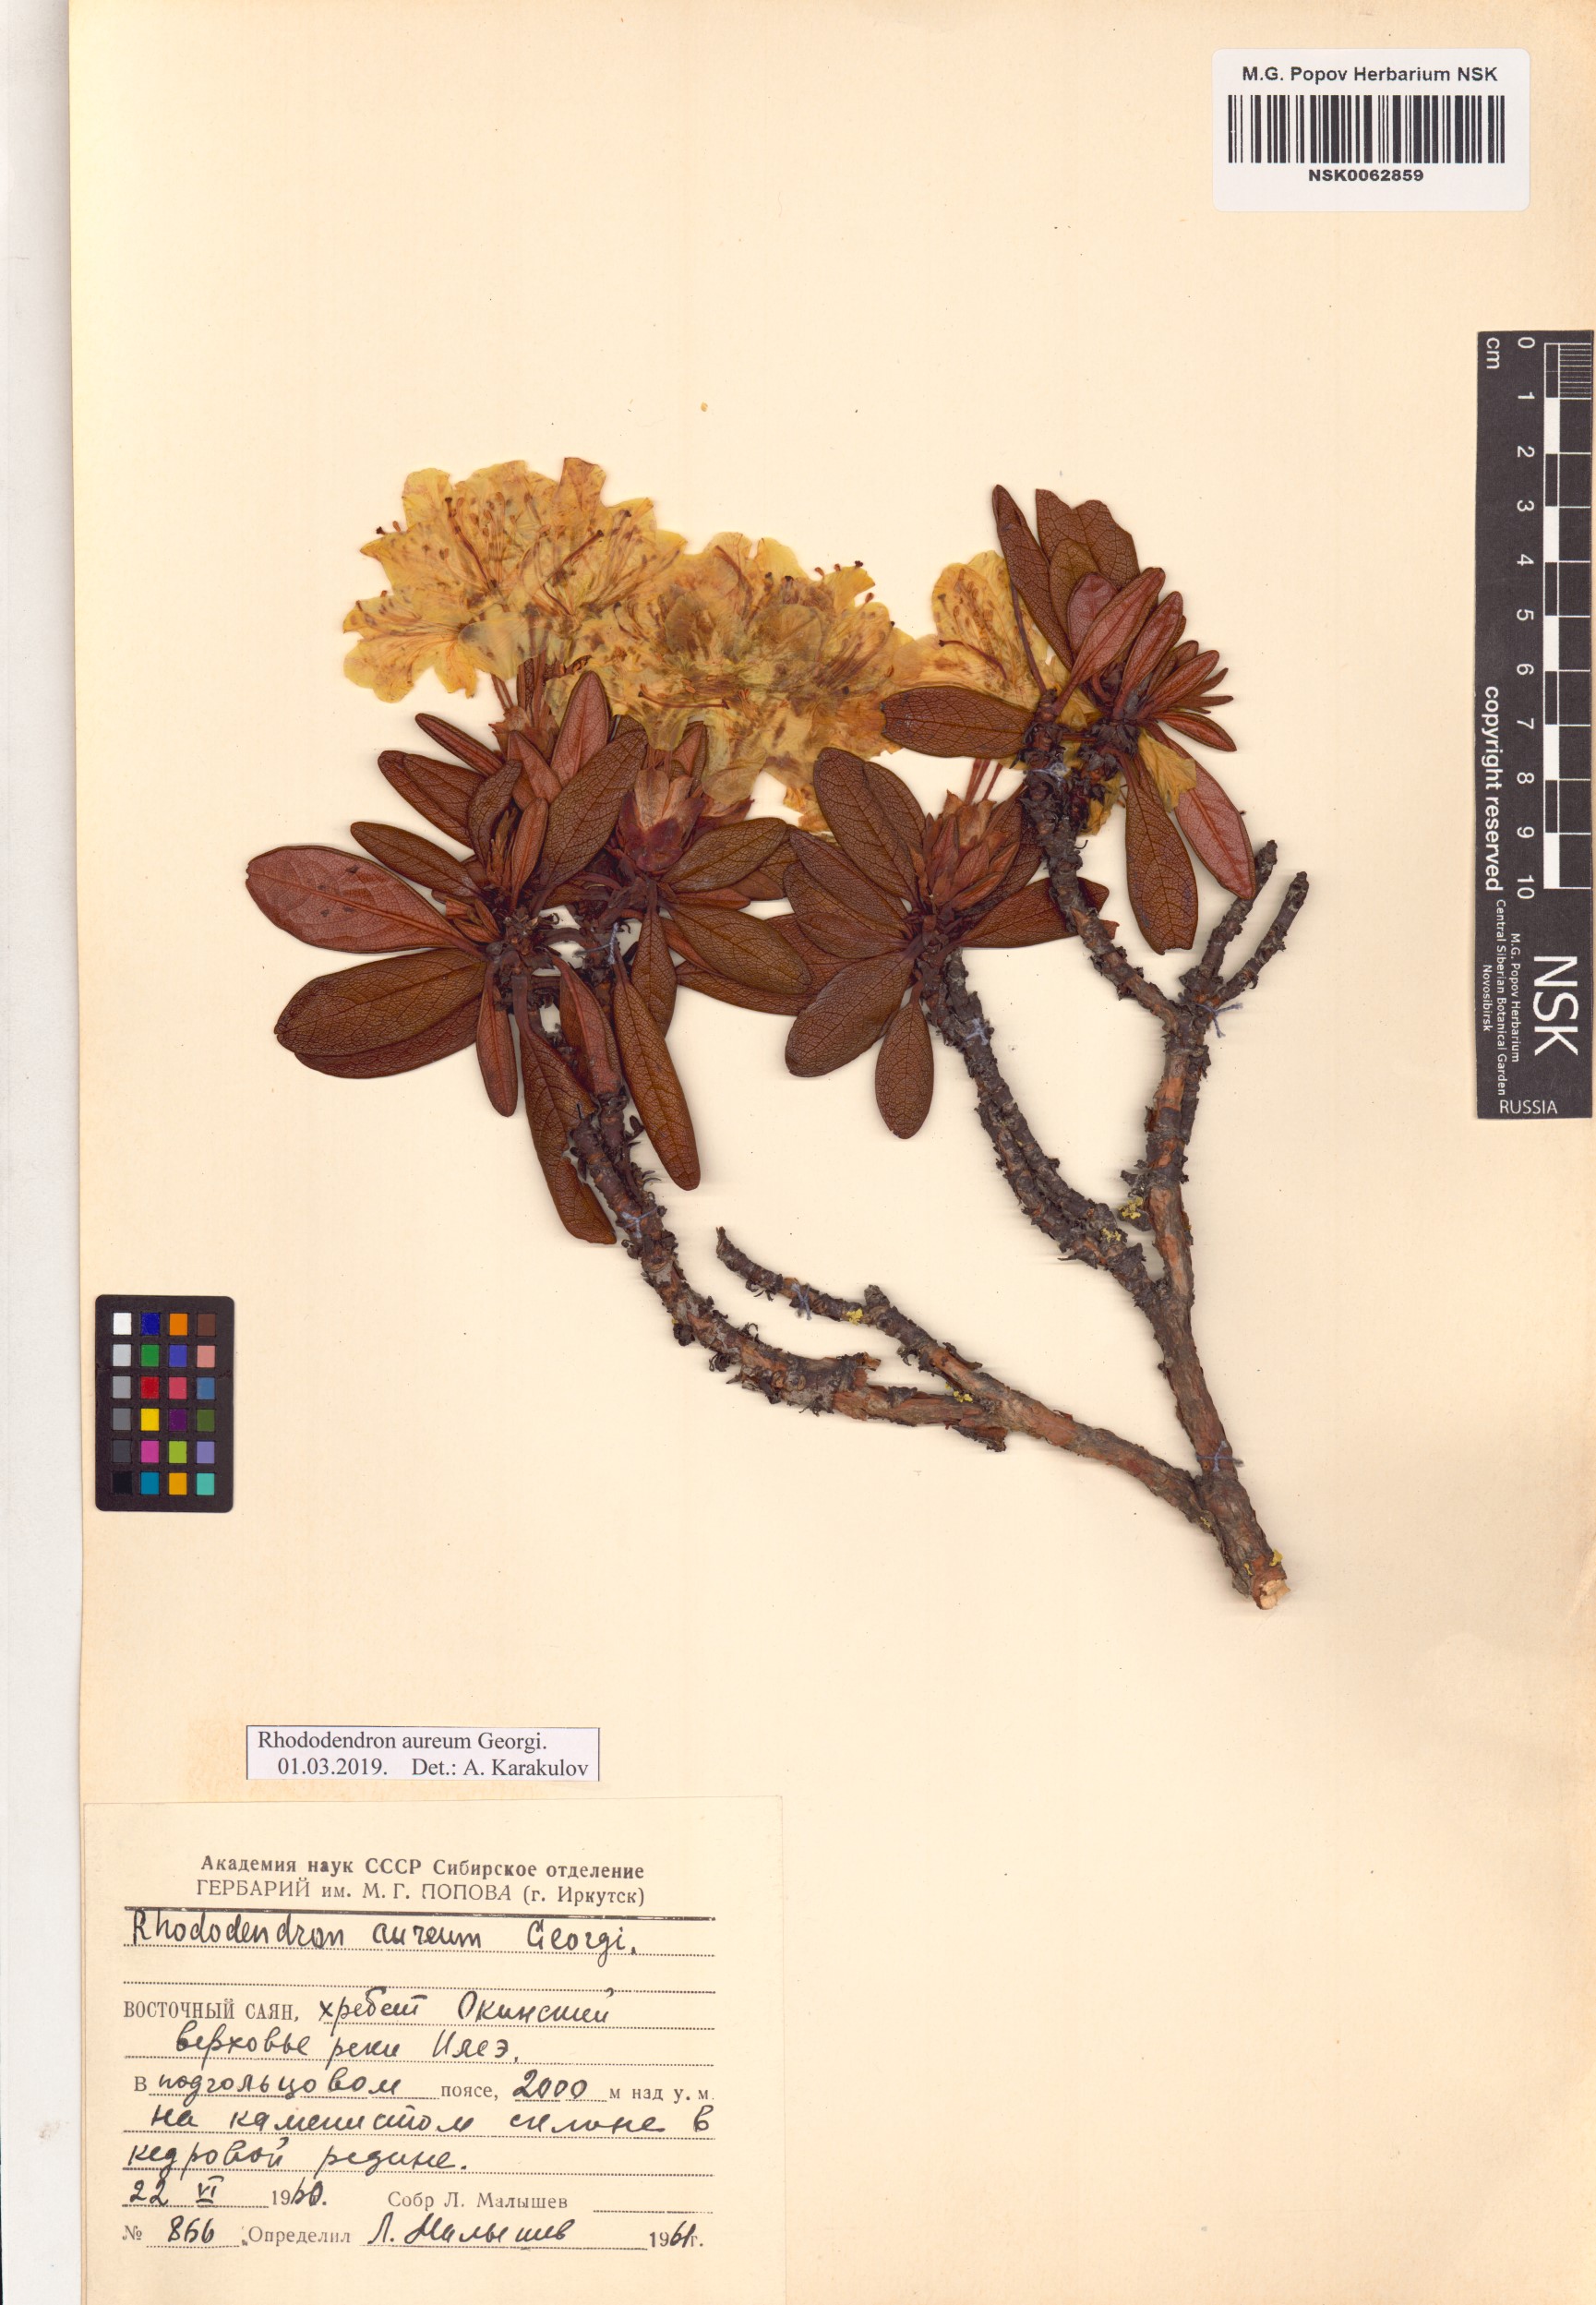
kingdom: Plantae
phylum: Tracheophyta
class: Magnoliopsida
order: Ericales
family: Ericaceae
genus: Rhododendron
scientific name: Rhododendron aureum
